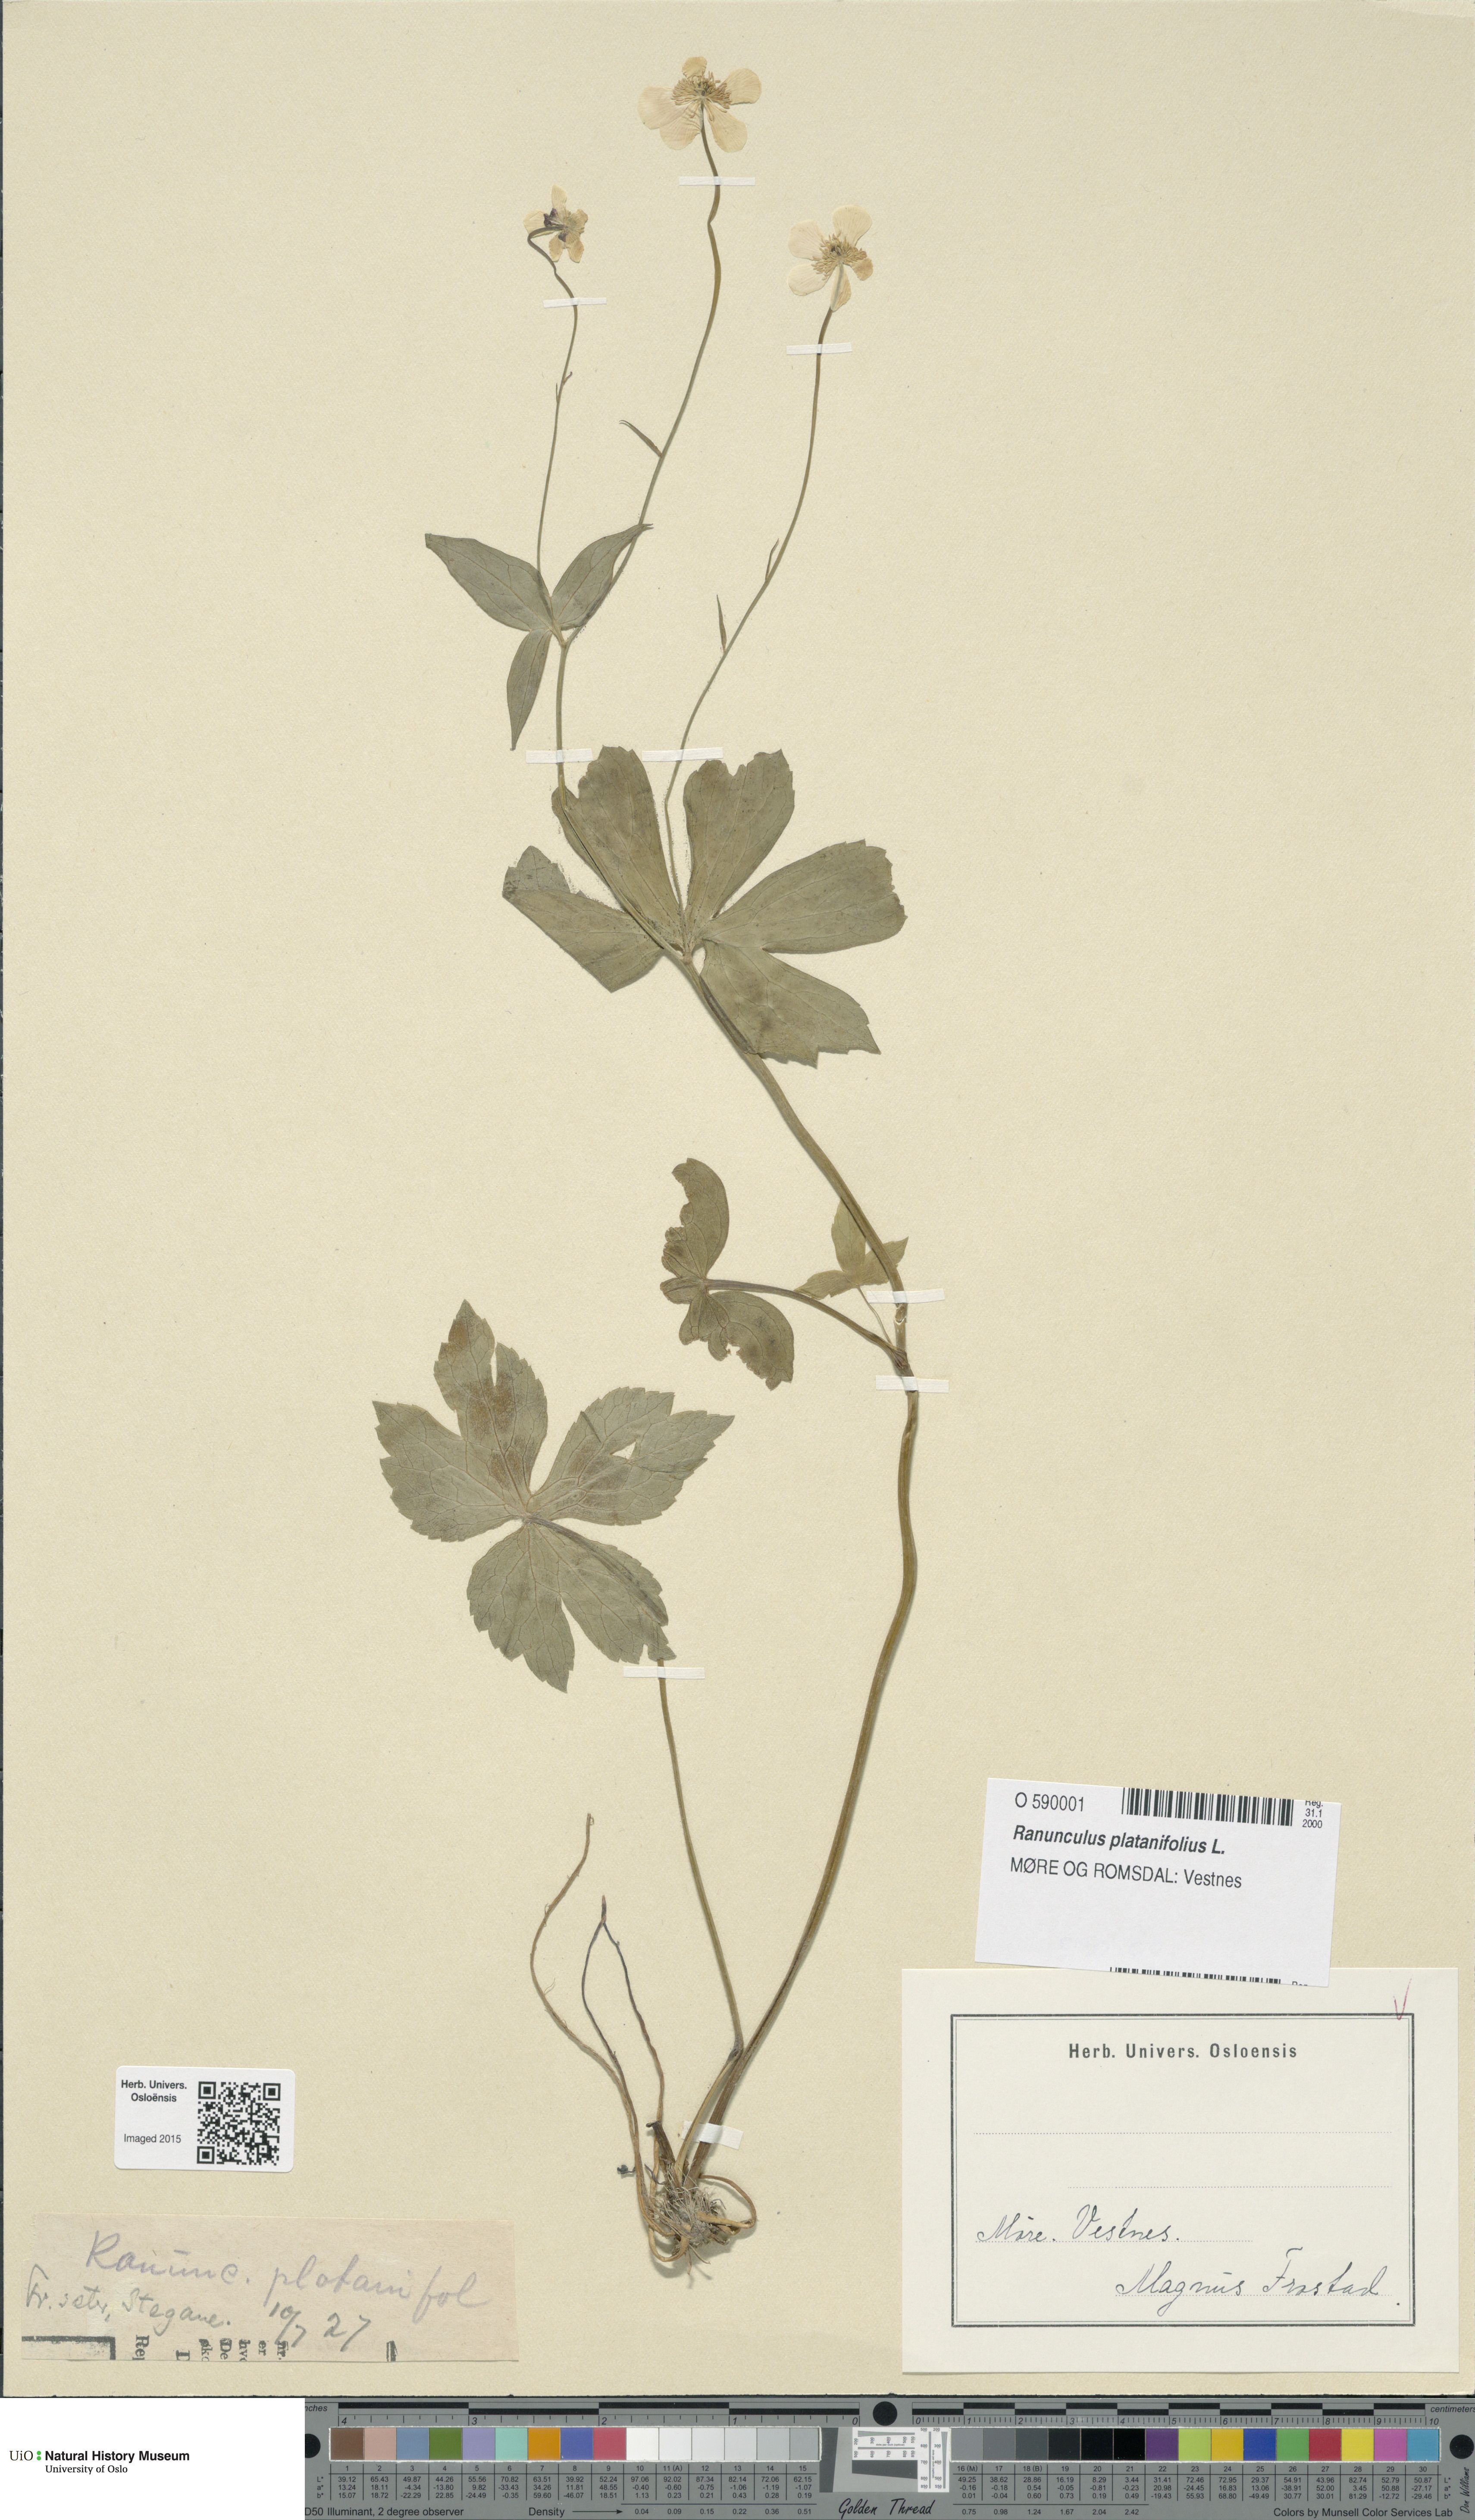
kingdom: Plantae
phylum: Tracheophyta
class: Magnoliopsida
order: Ranunculales
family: Ranunculaceae
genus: Ranunculus
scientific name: Ranunculus platanifolius
